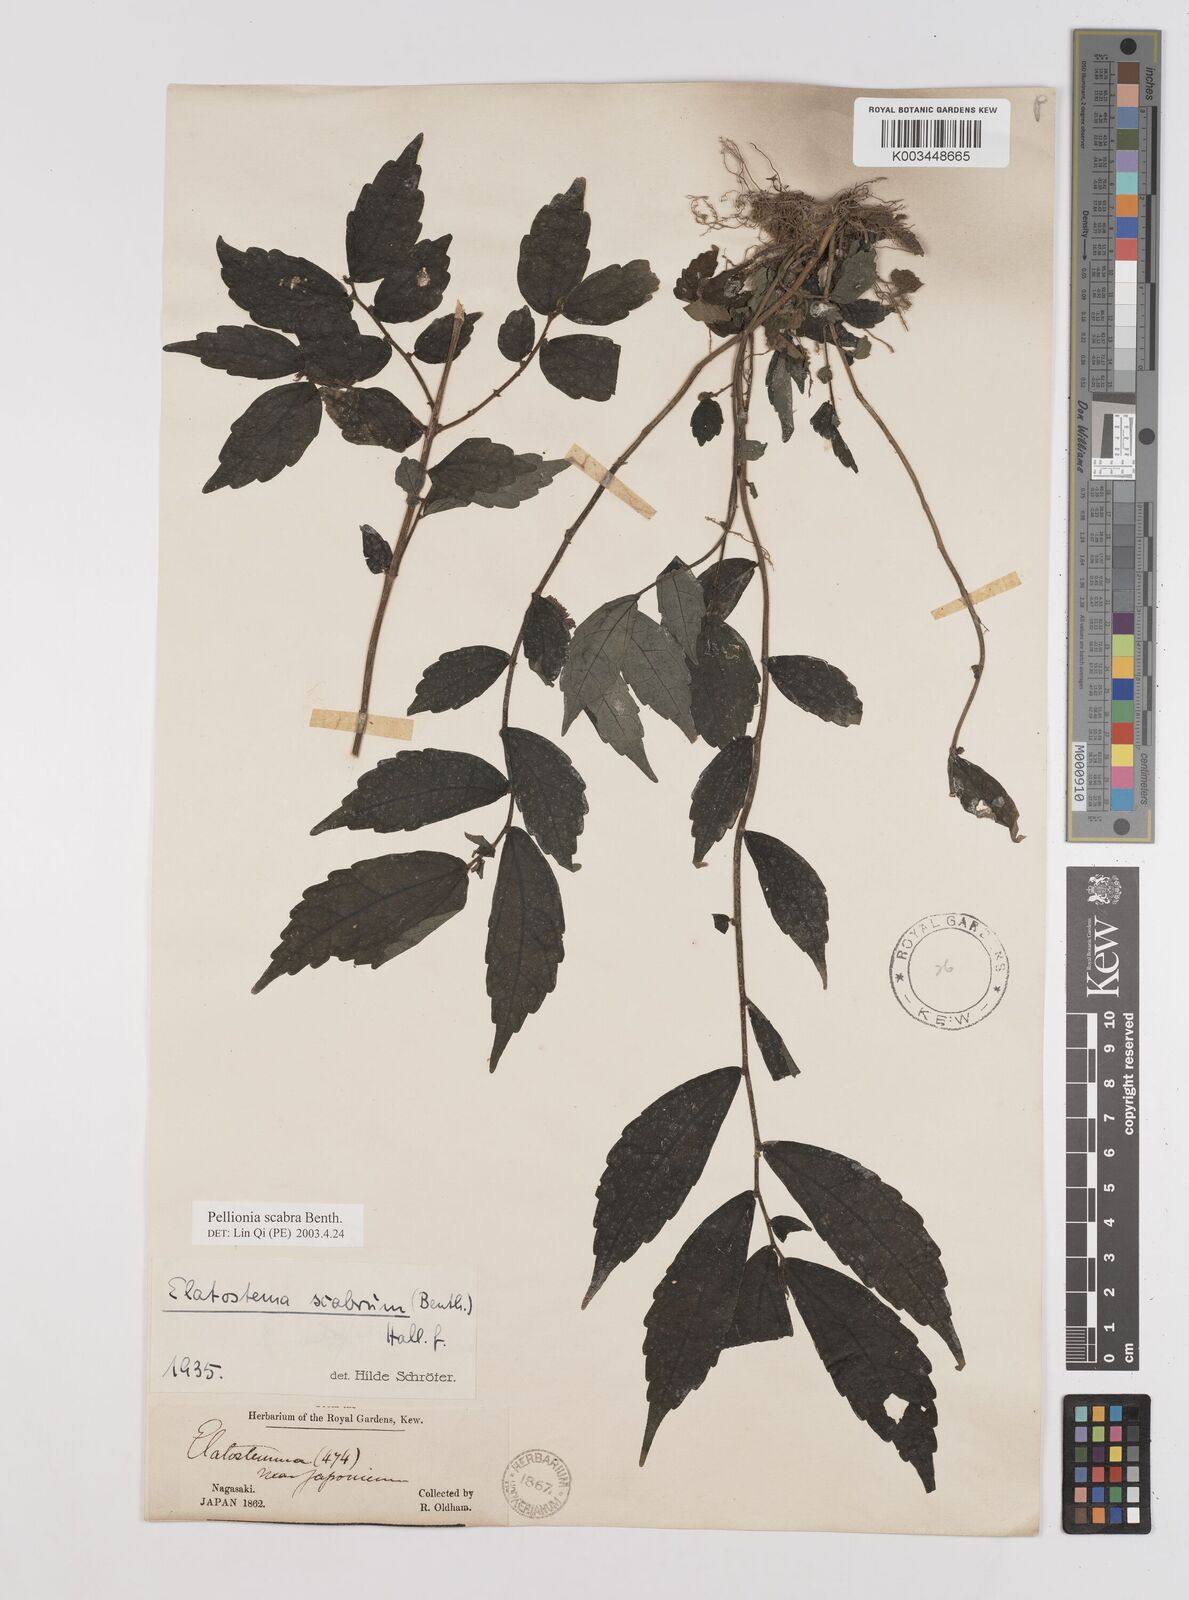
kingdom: Plantae
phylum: Tracheophyta
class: Magnoliopsida
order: Rosales
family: Urticaceae
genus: Elatostema
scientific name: Elatostema
